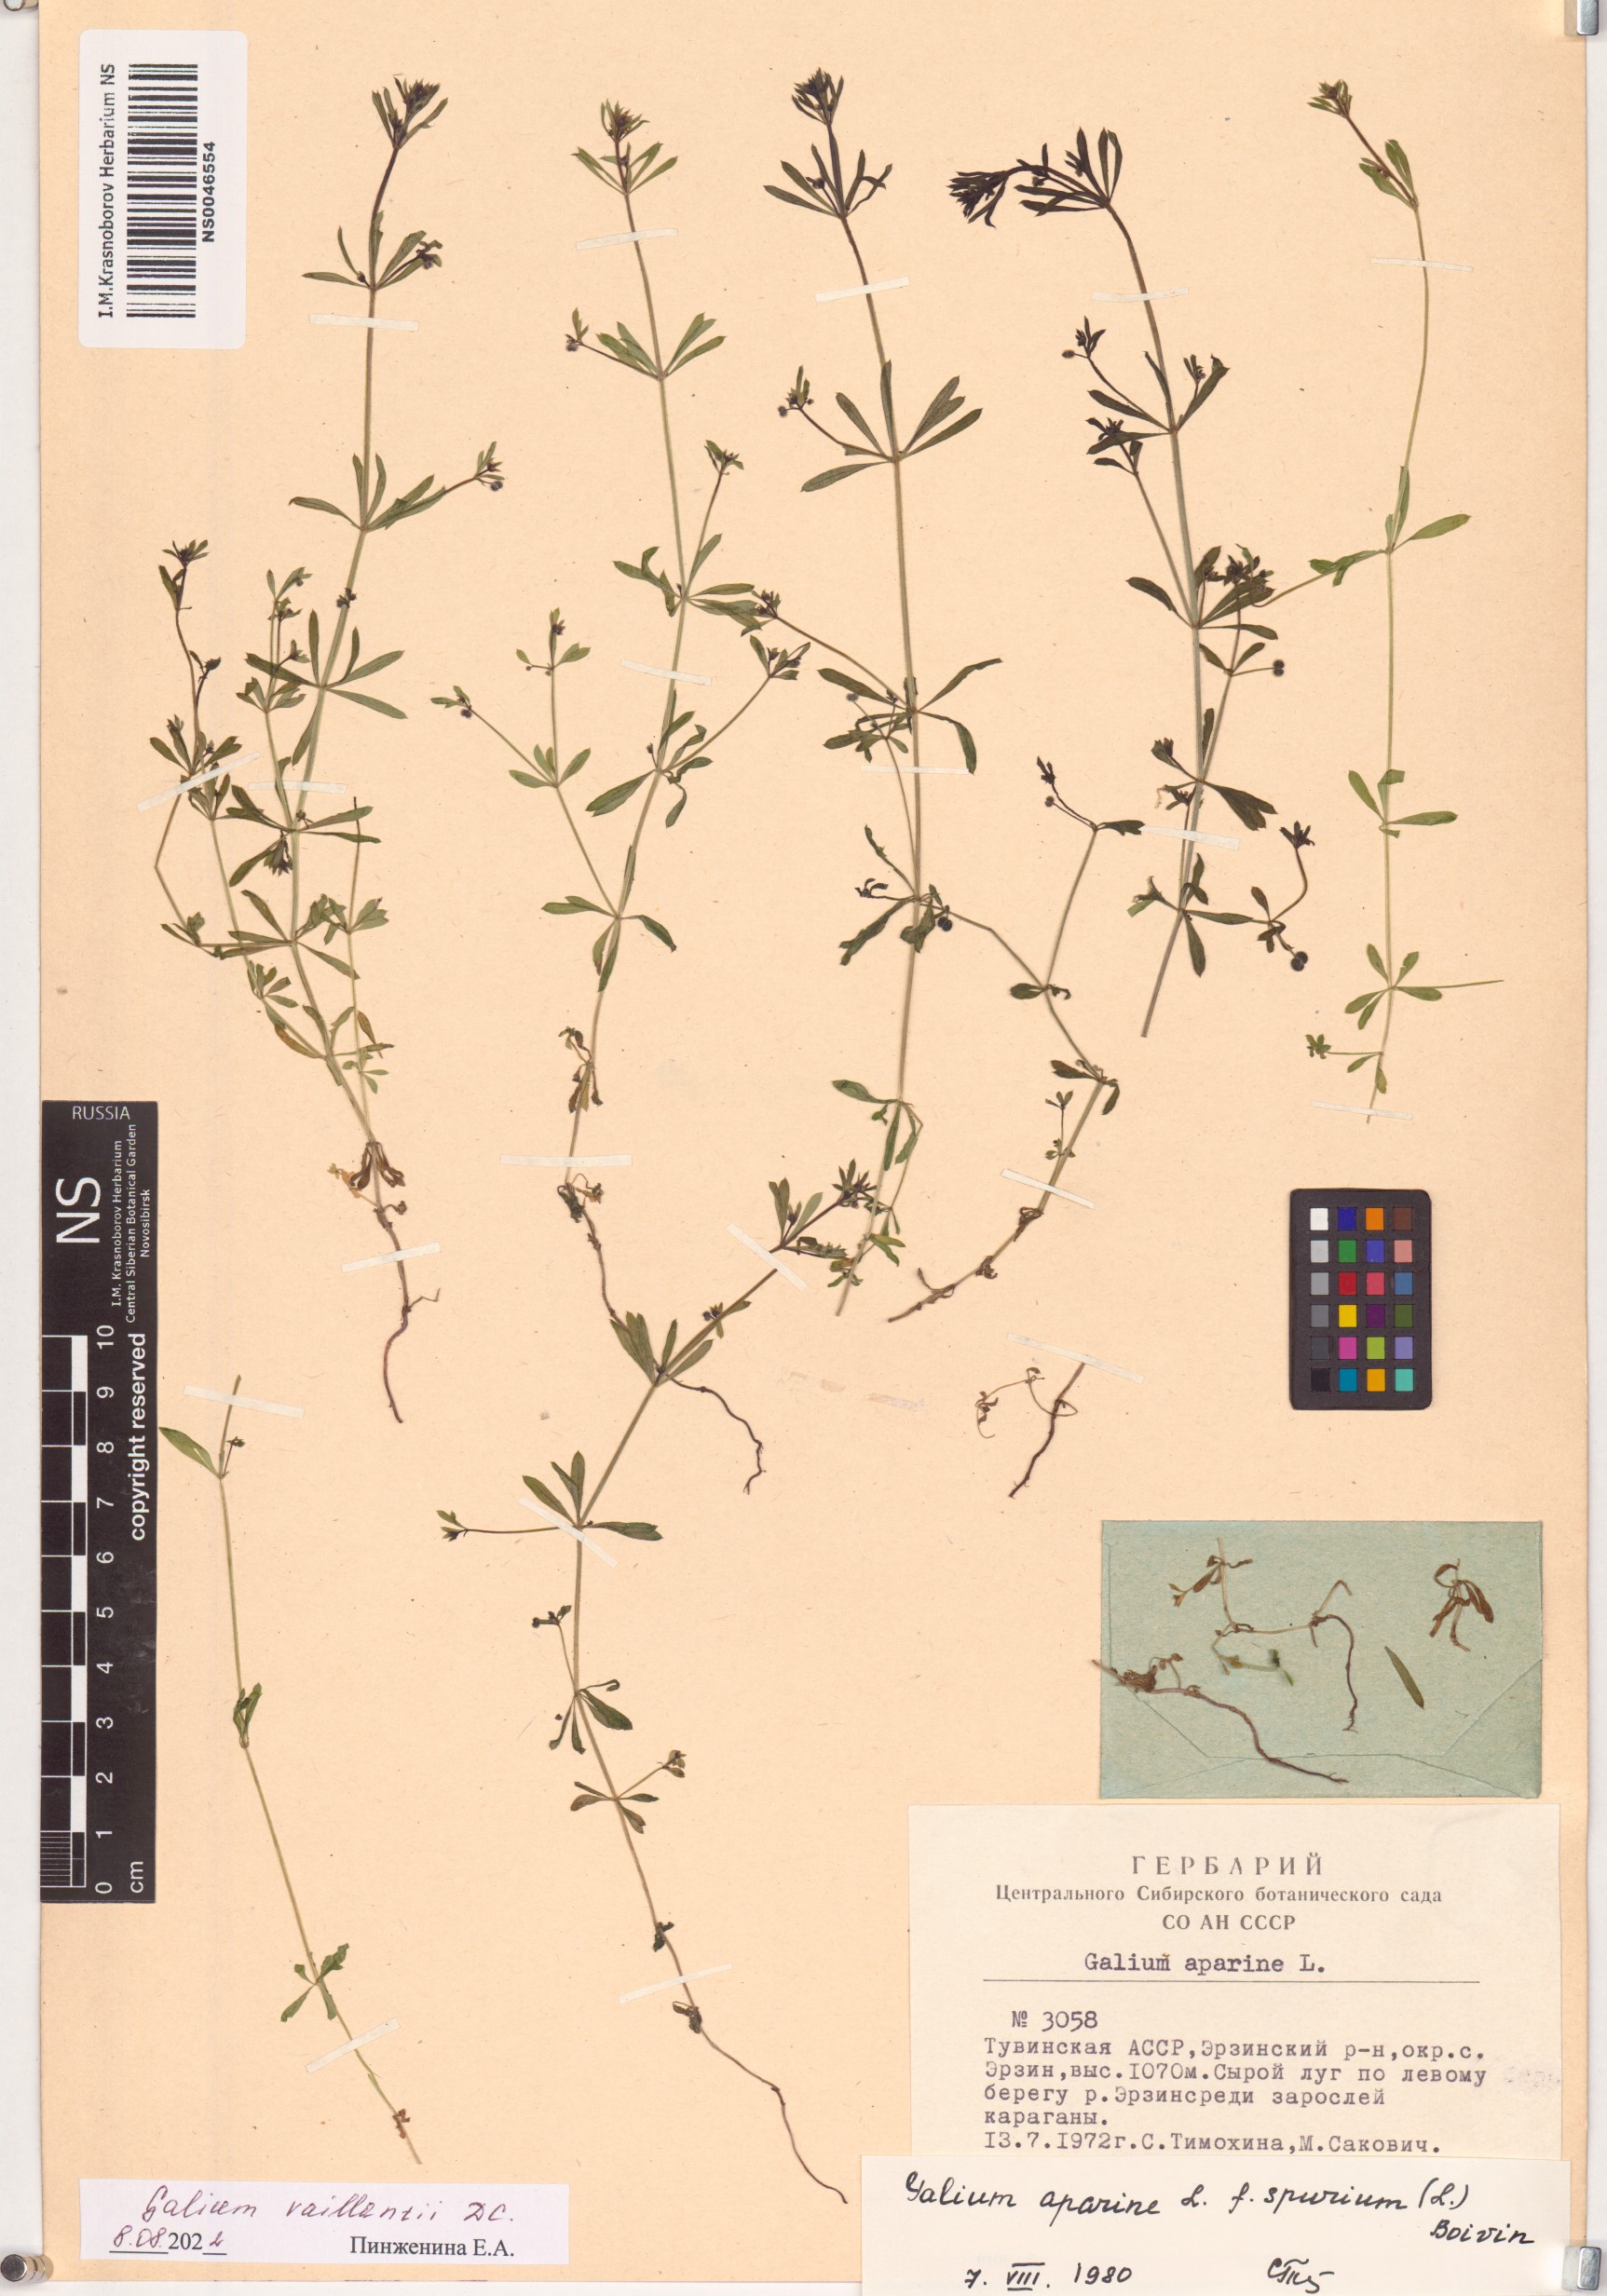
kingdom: Plantae
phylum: Tracheophyta
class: Magnoliopsida
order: Gentianales
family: Rubiaceae
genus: Galium
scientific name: Galium spurium
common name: False cleavers
